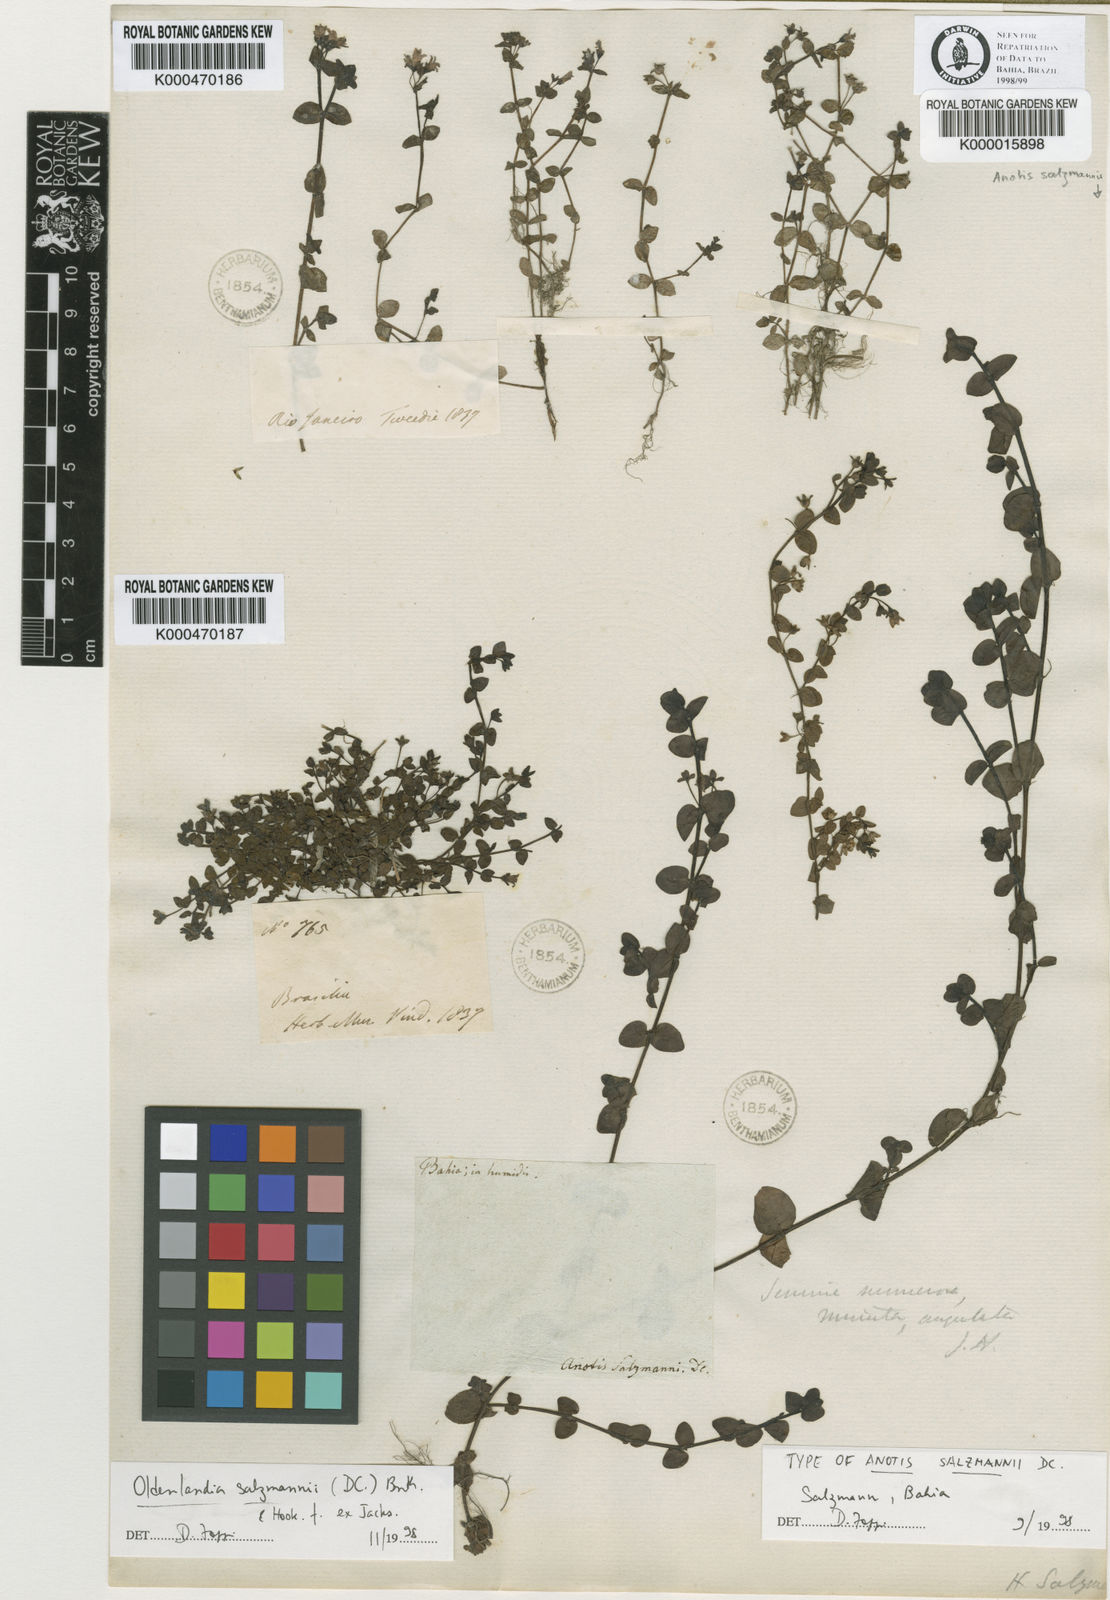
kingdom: Plantae
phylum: Tracheophyta
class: Magnoliopsida
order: Gentianales
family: Rubiaceae
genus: Oldenlandia
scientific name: Oldenlandia salzmannii
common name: Salzmann's mille graines
